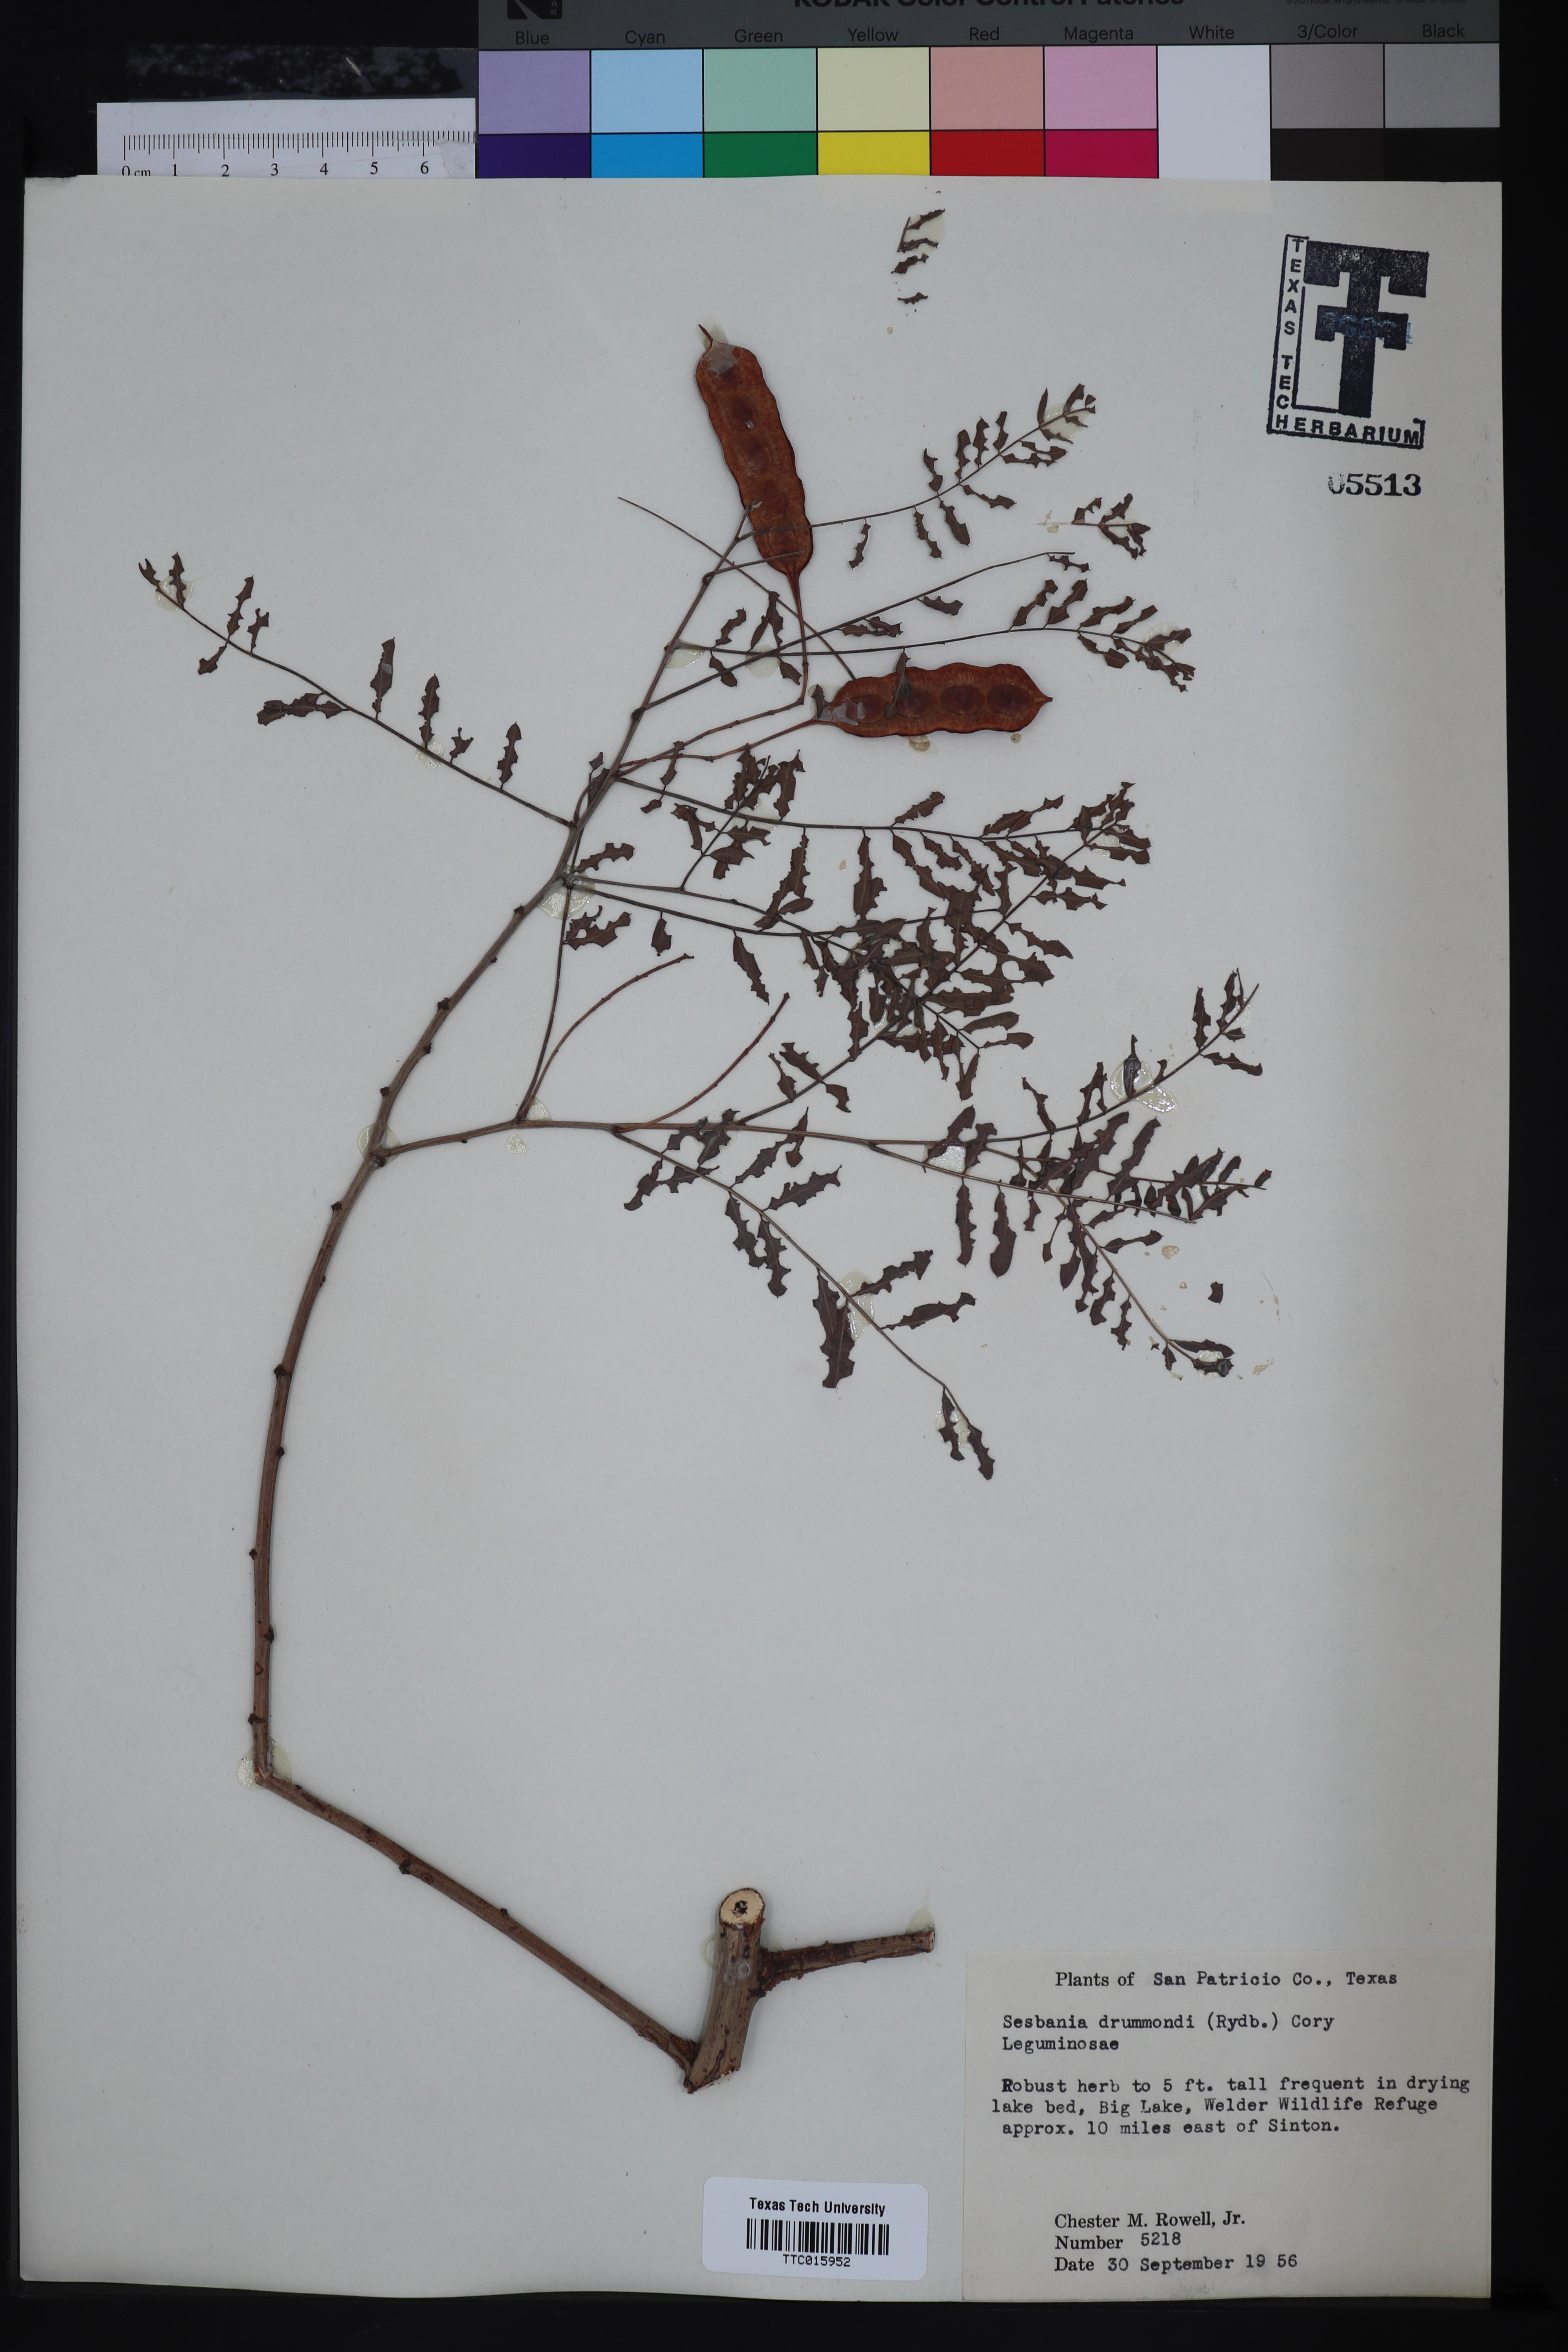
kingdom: Plantae
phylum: Tracheophyta
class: Magnoliopsida
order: Fabales
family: Fabaceae
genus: Sesbania
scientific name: Sesbania drummondii
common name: Poison-bean
